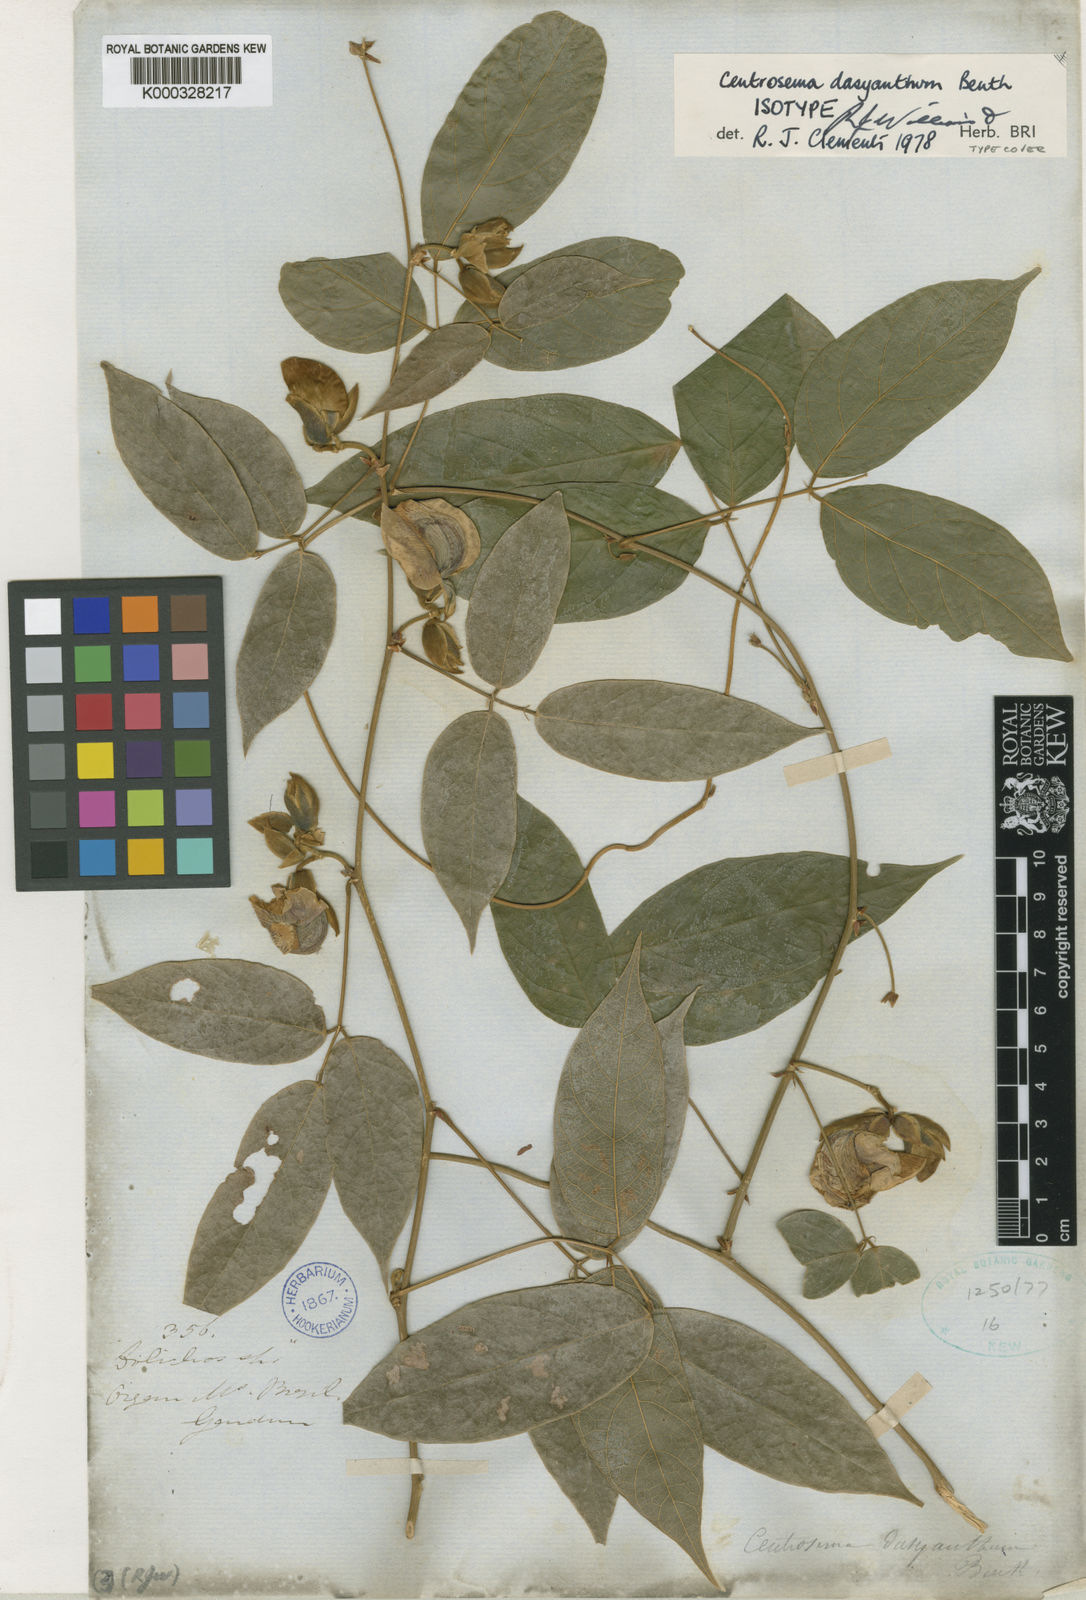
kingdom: Plantae
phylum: Tracheophyta
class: Magnoliopsida
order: Fabales
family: Fabaceae
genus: Centrosema
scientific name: Centrosema dasyanthum
